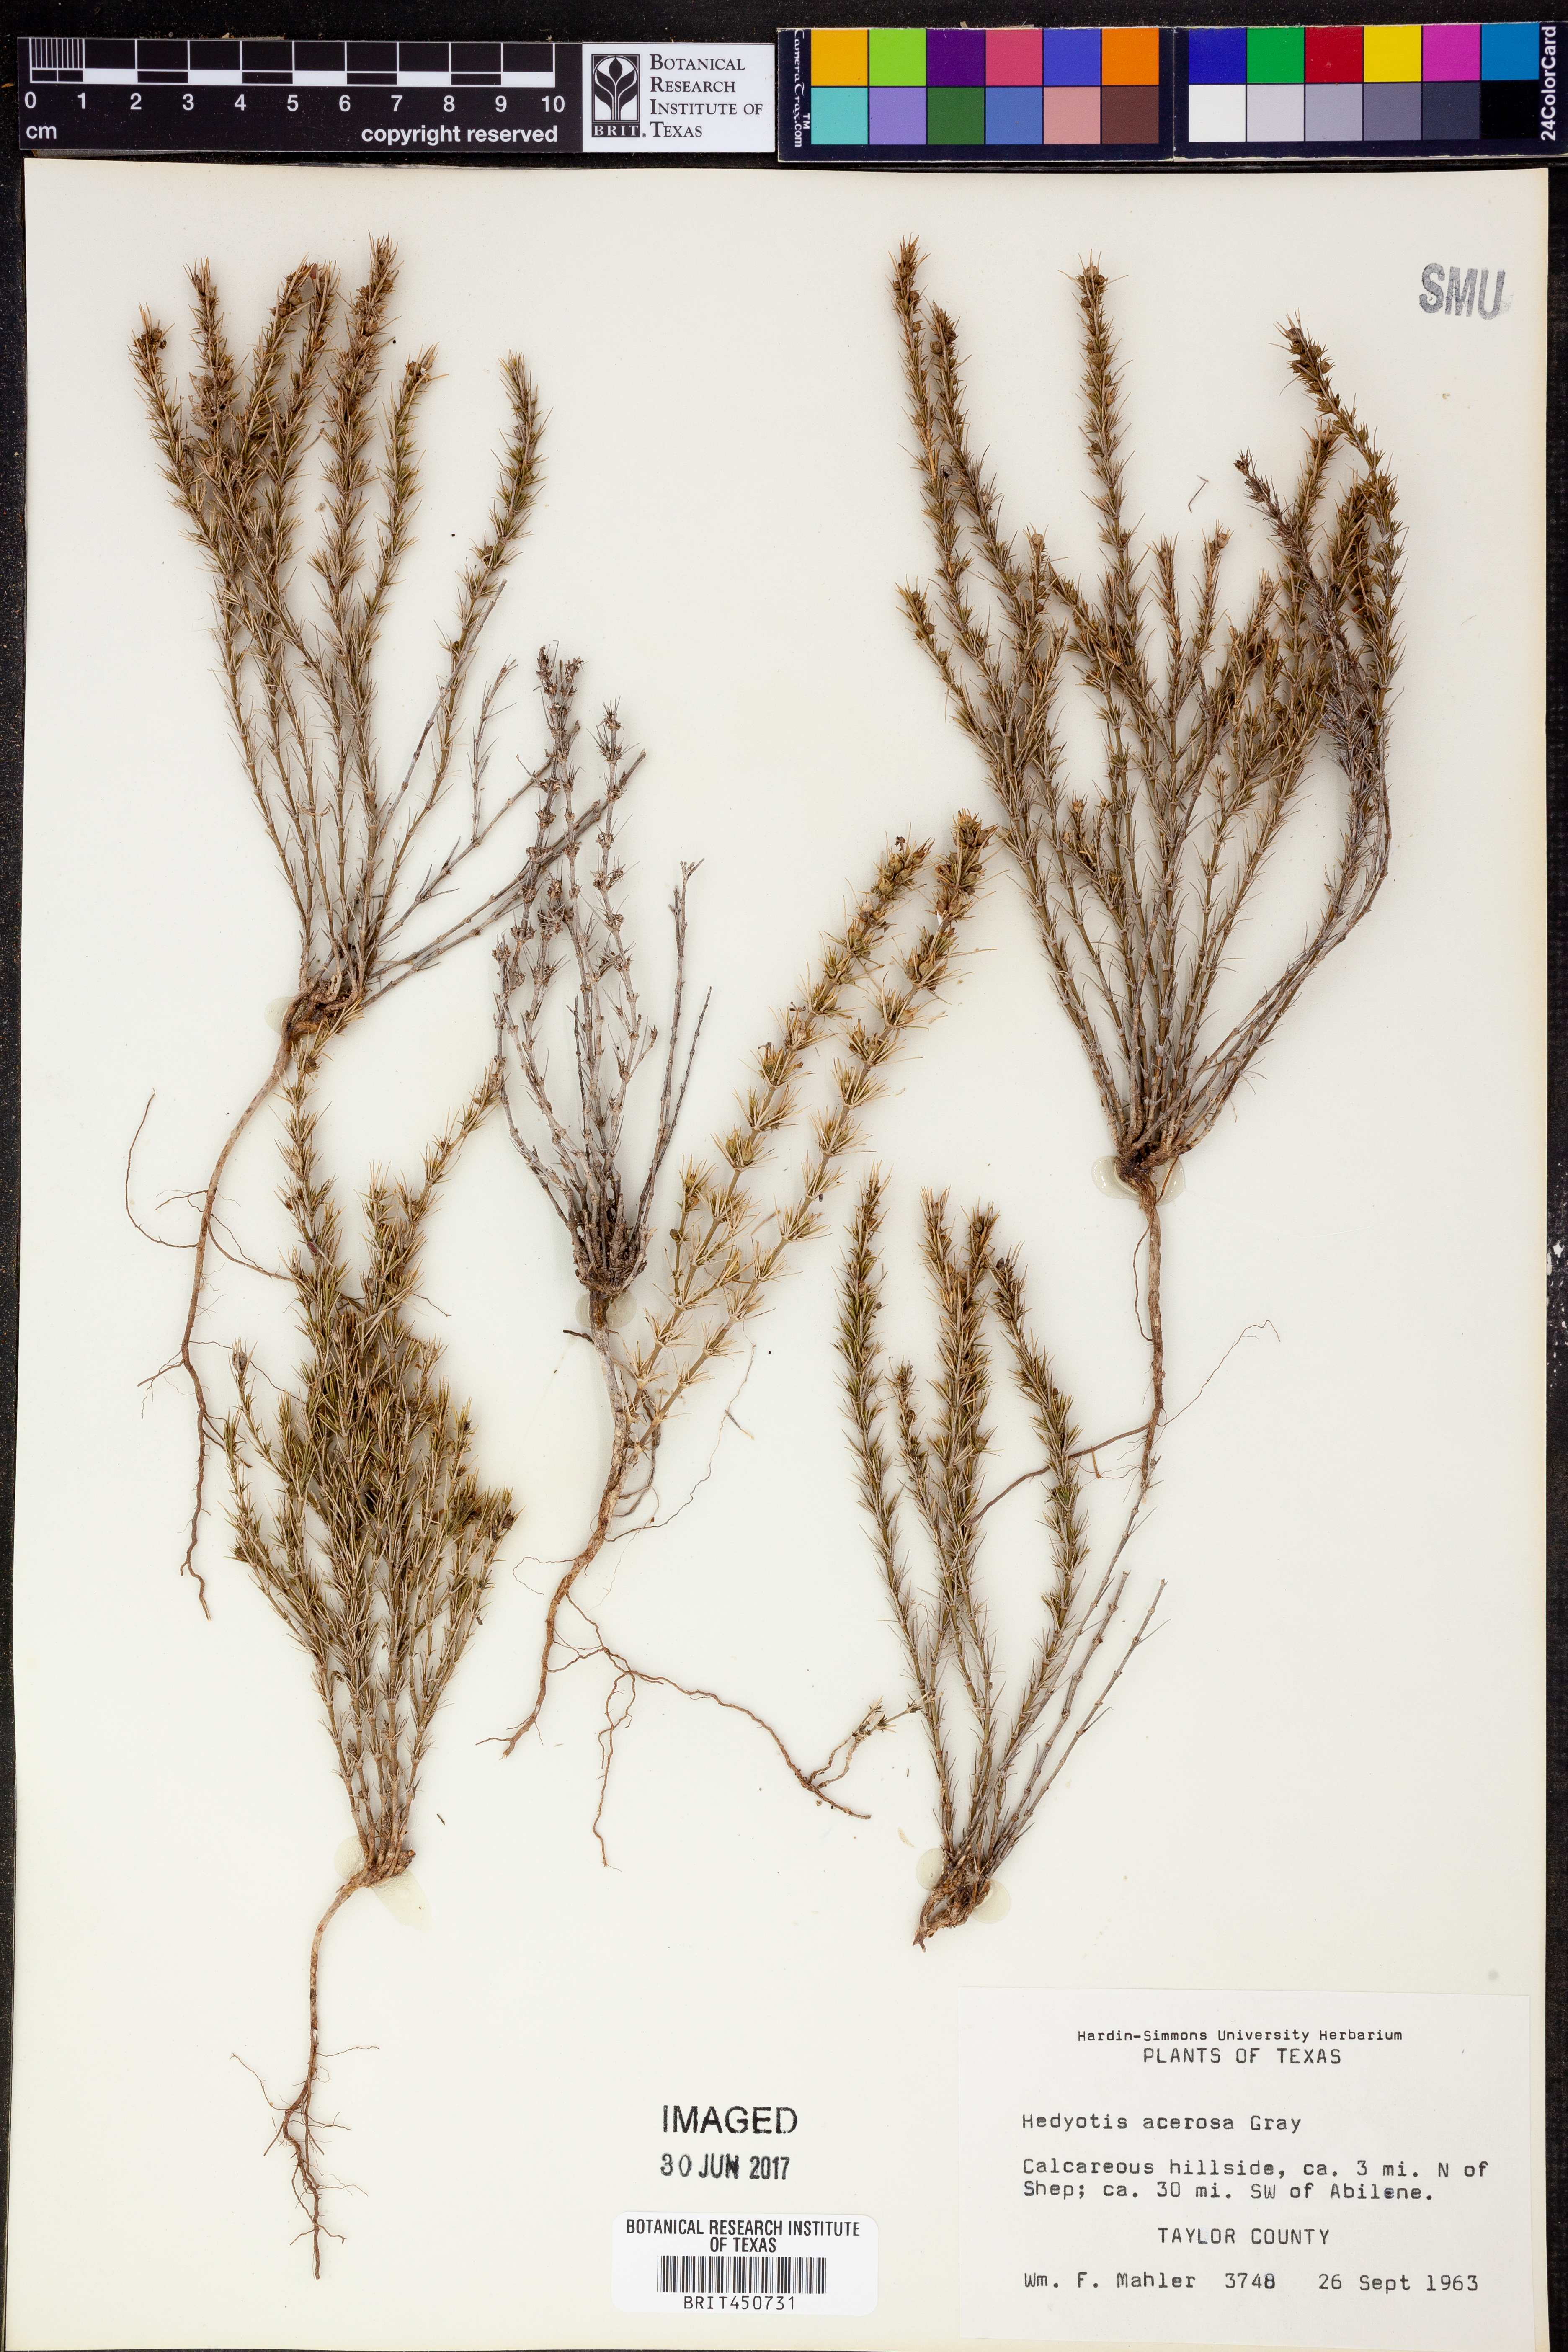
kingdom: Plantae
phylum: Tracheophyta
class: Magnoliopsida
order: Gentianales
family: Rubiaceae
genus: Houstonia
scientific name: Houstonia acerosa
